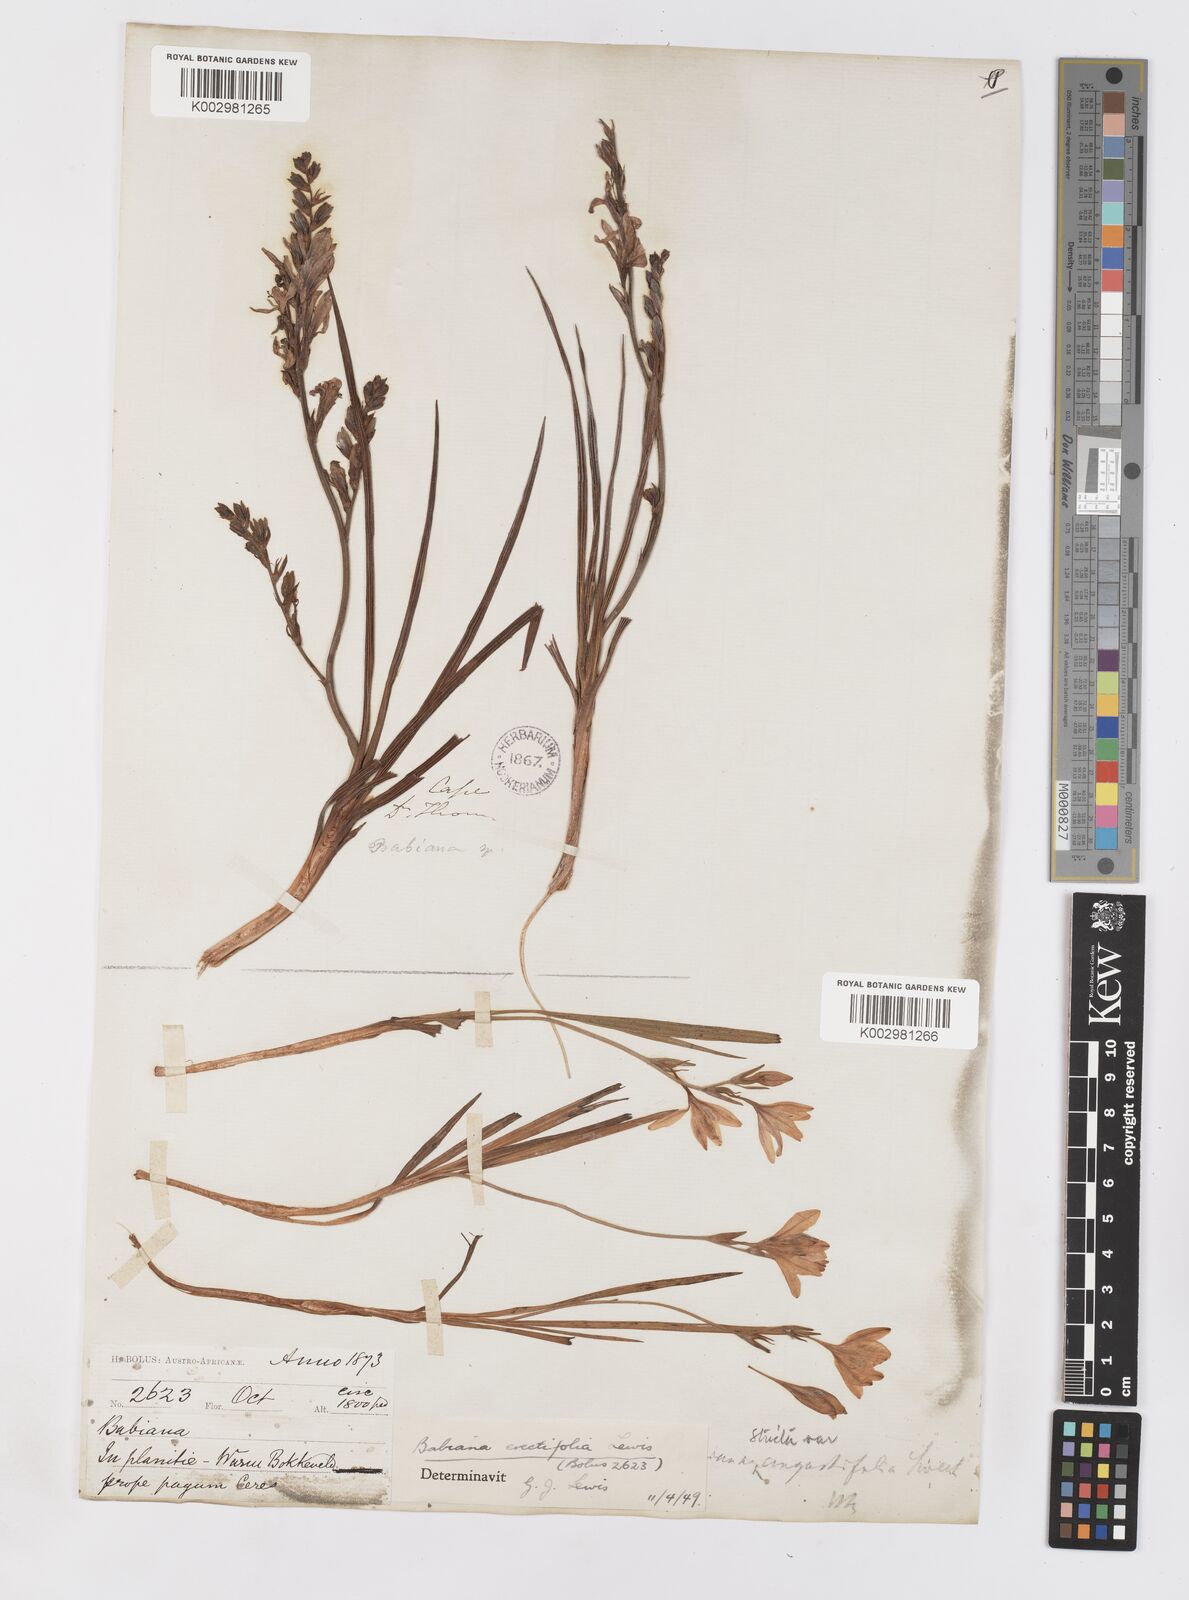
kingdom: Plantae
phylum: Tracheophyta
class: Liliopsida
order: Asparagales
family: Iridaceae
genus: Babiana
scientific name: Babiana regia
